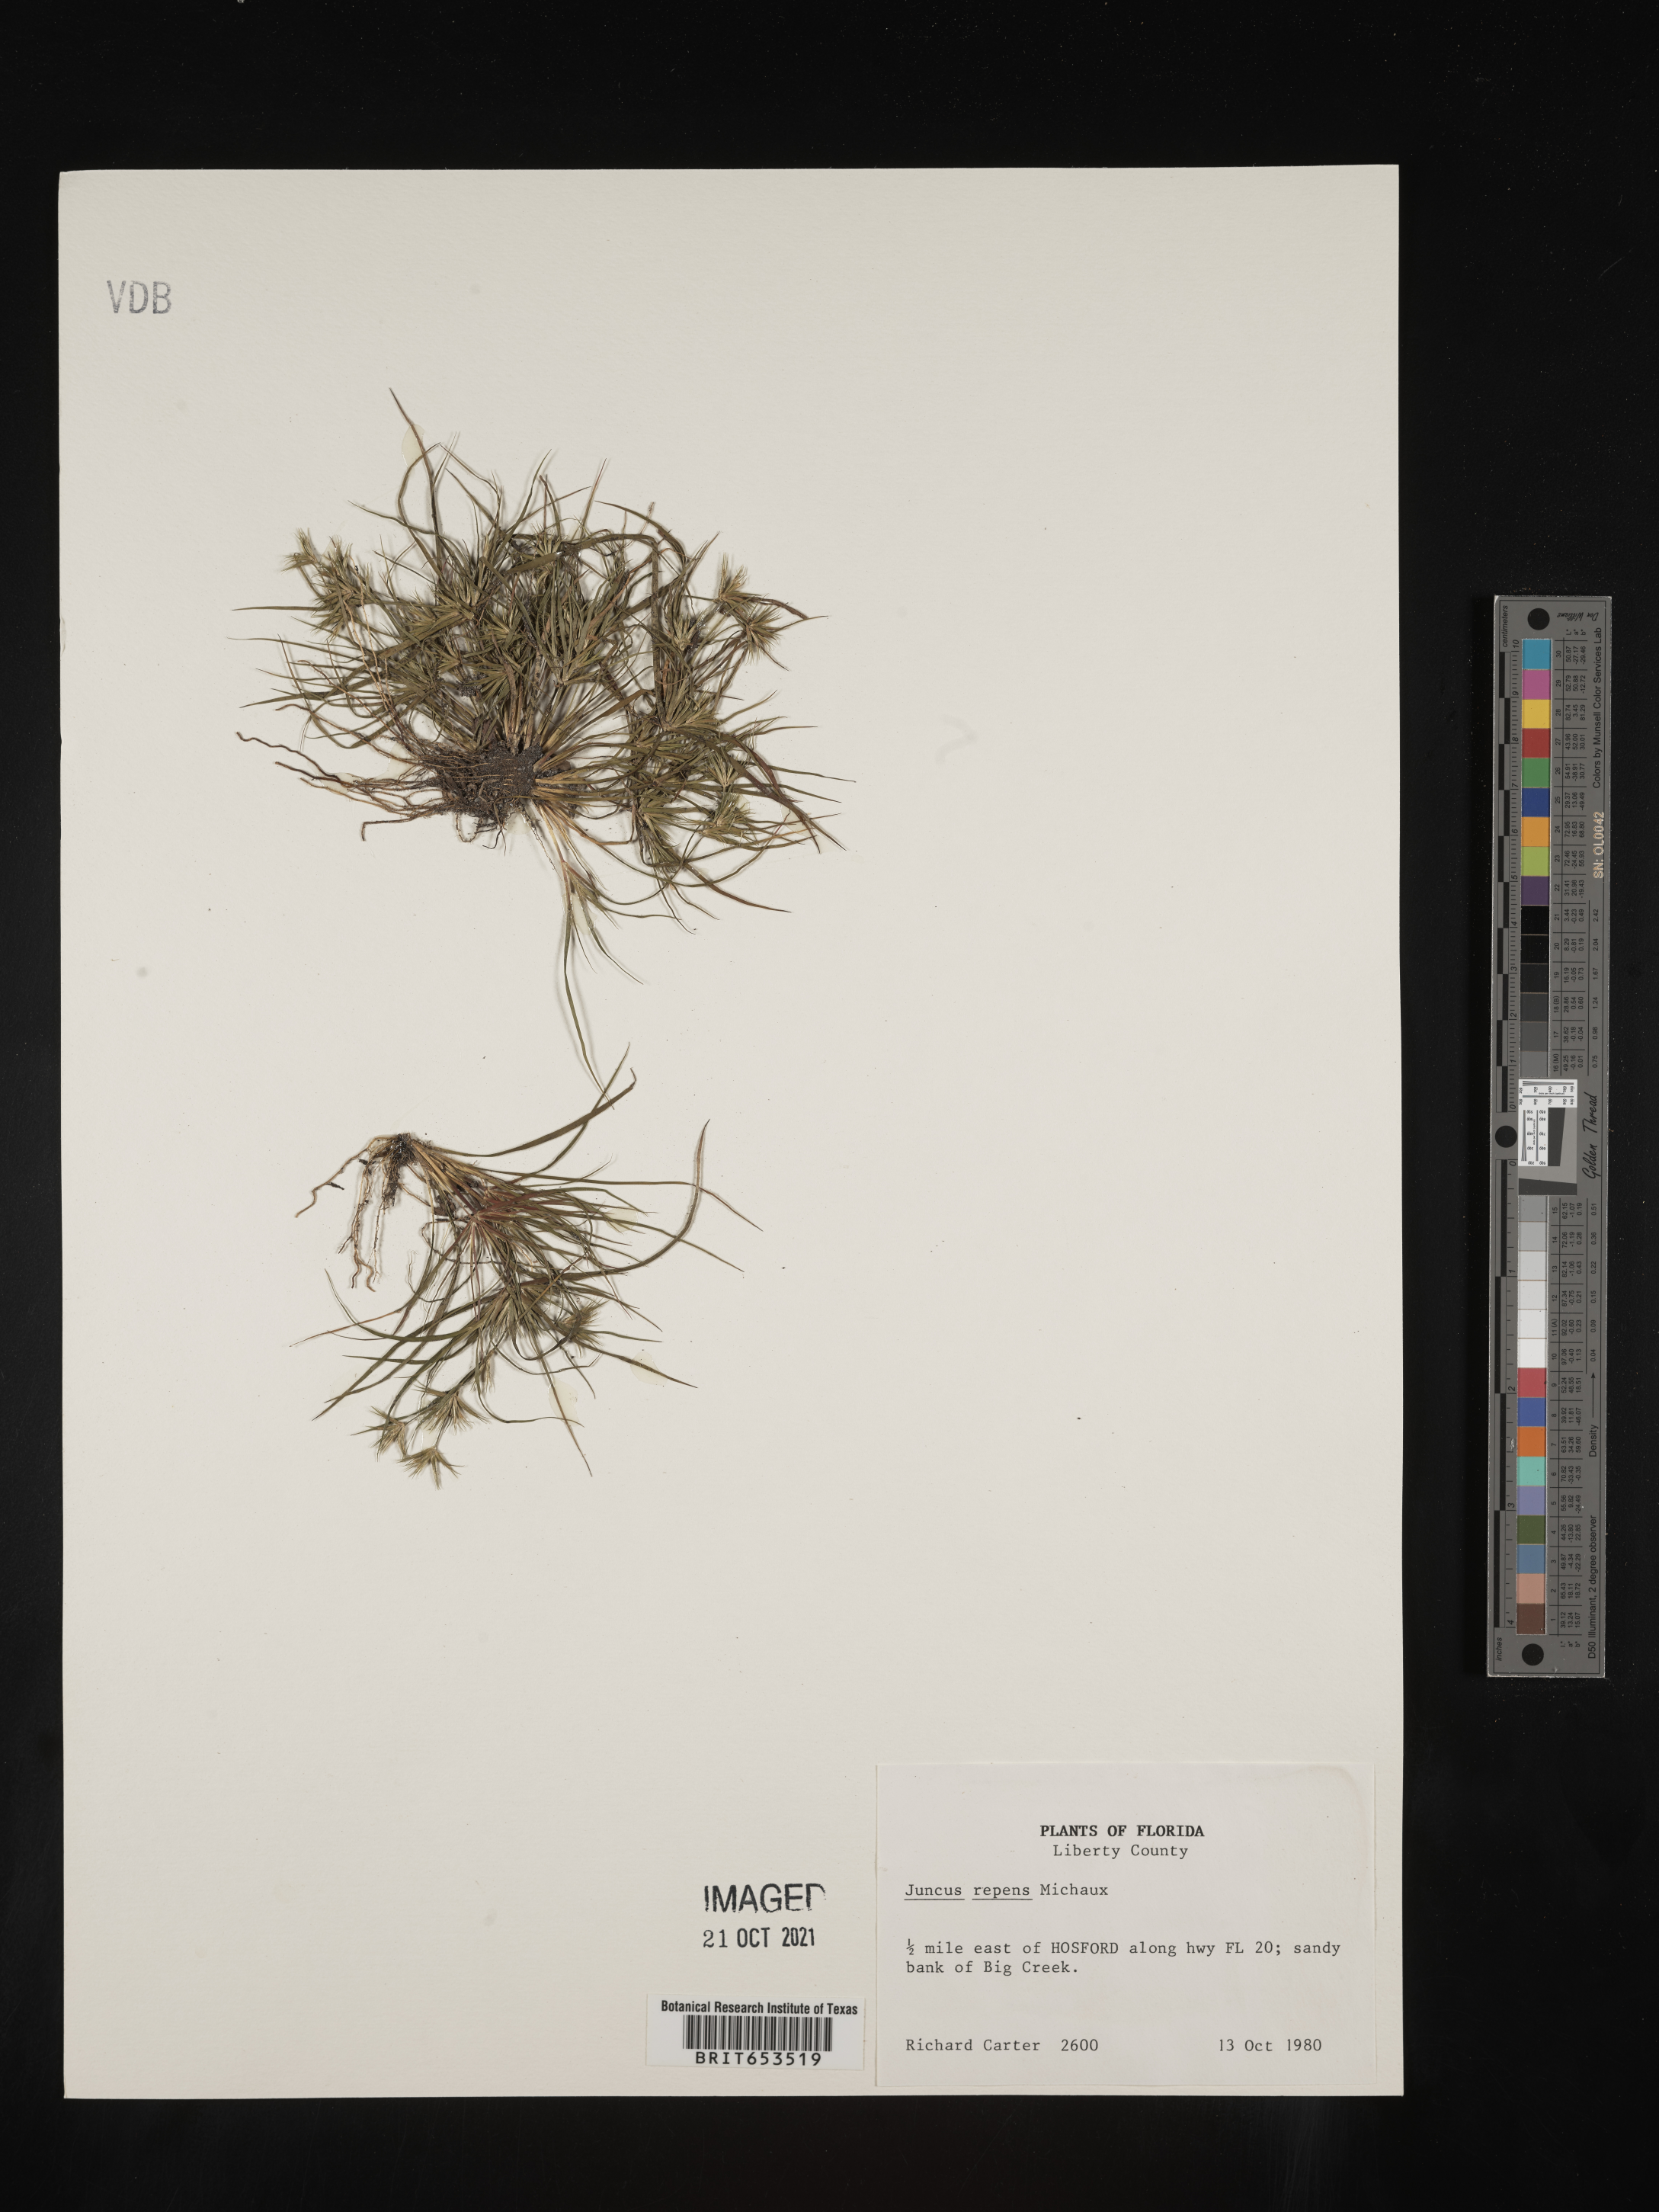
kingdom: Plantae
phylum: Tracheophyta
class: Liliopsida
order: Poales
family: Juncaceae
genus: Juncus
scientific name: Juncus repens
